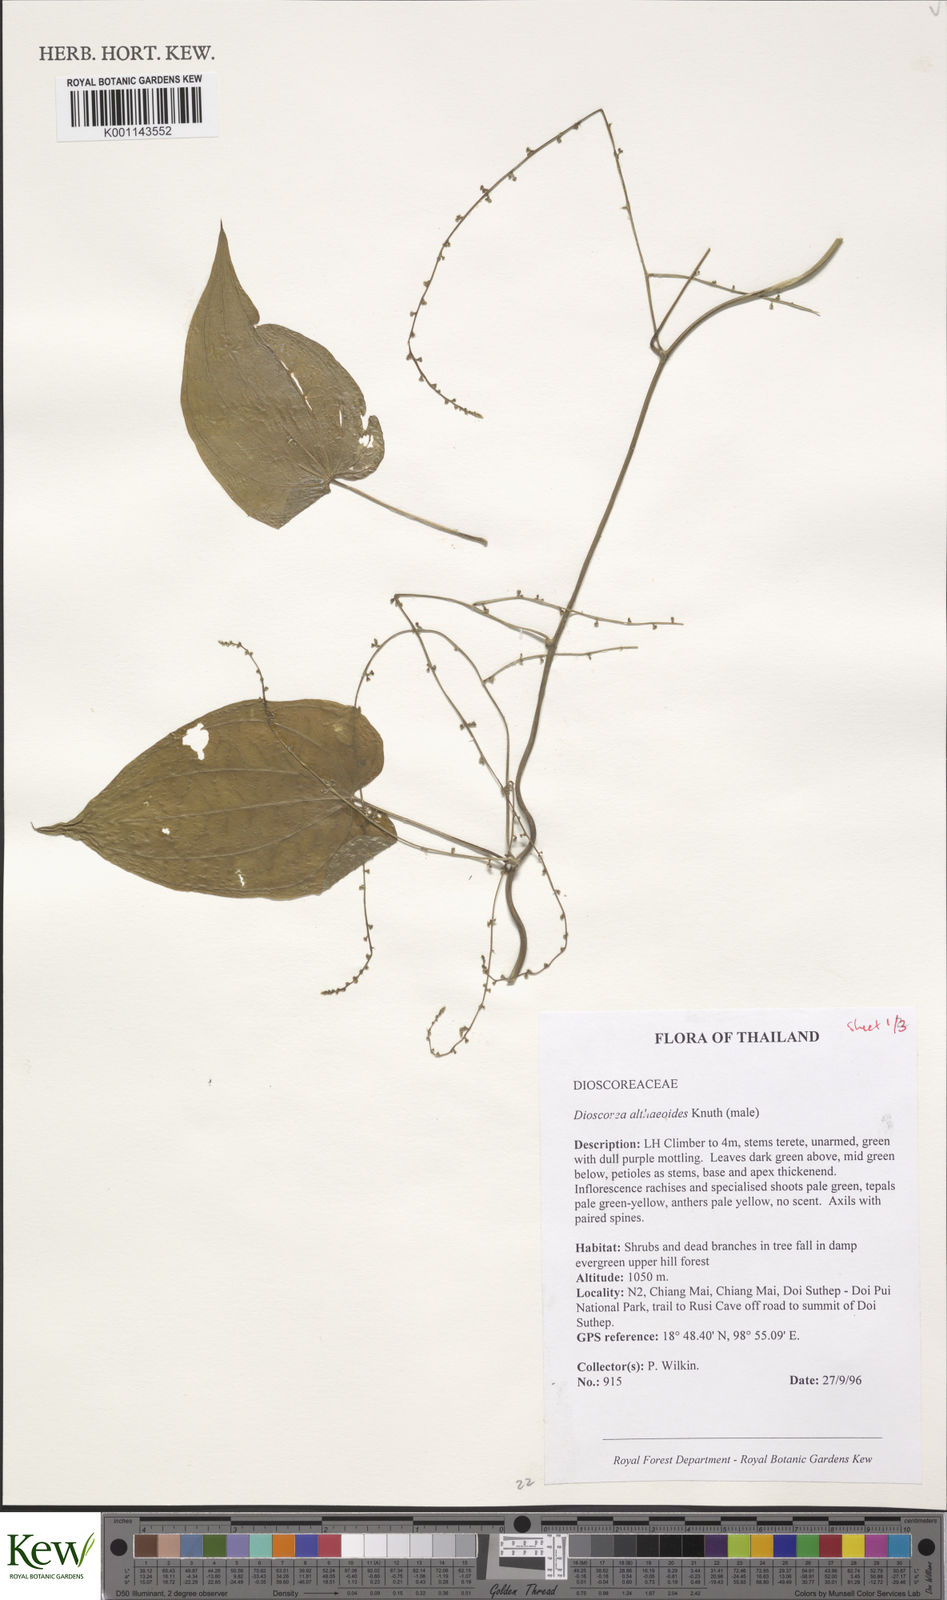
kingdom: Plantae
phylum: Tracheophyta
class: Liliopsida
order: Dioscoreales
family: Dioscoreaceae
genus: Dioscorea
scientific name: Dioscorea rockii
